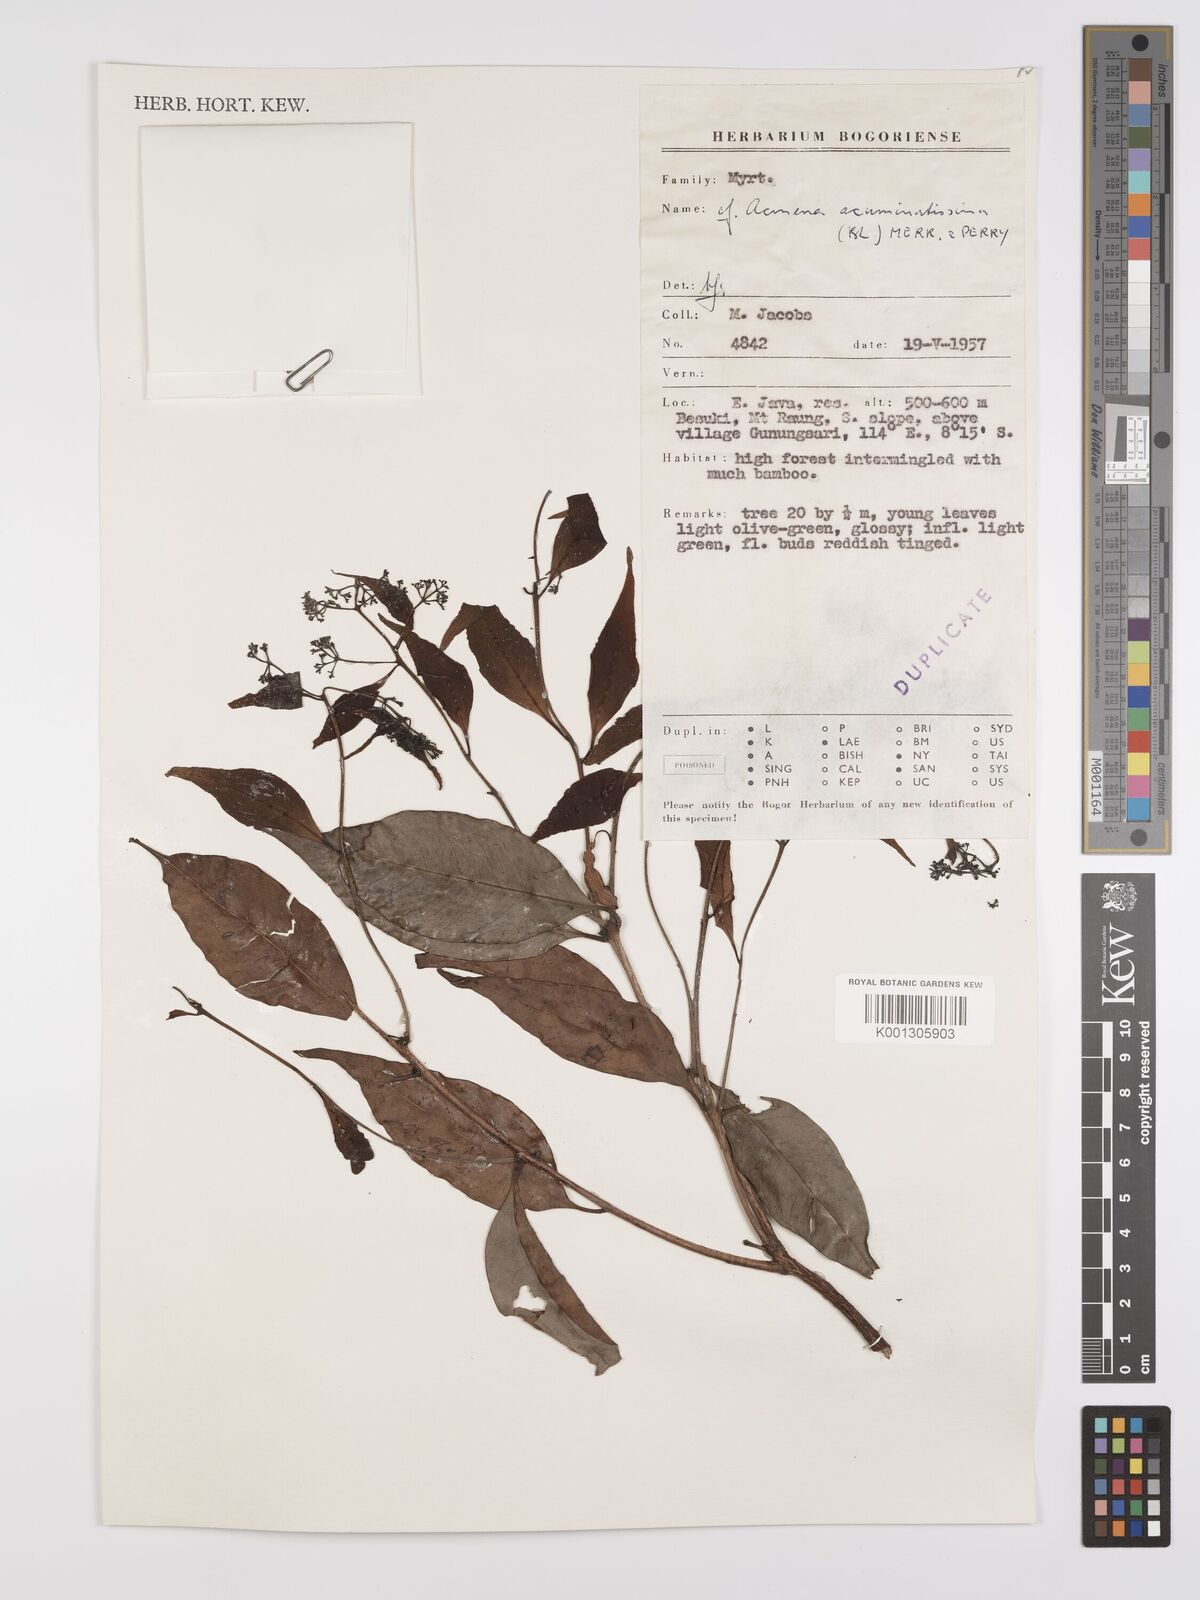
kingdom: Plantae
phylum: Tracheophyta
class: Magnoliopsida
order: Myrtales
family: Myrtaceae
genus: Syzygium
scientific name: Syzygium acuminatissimum
